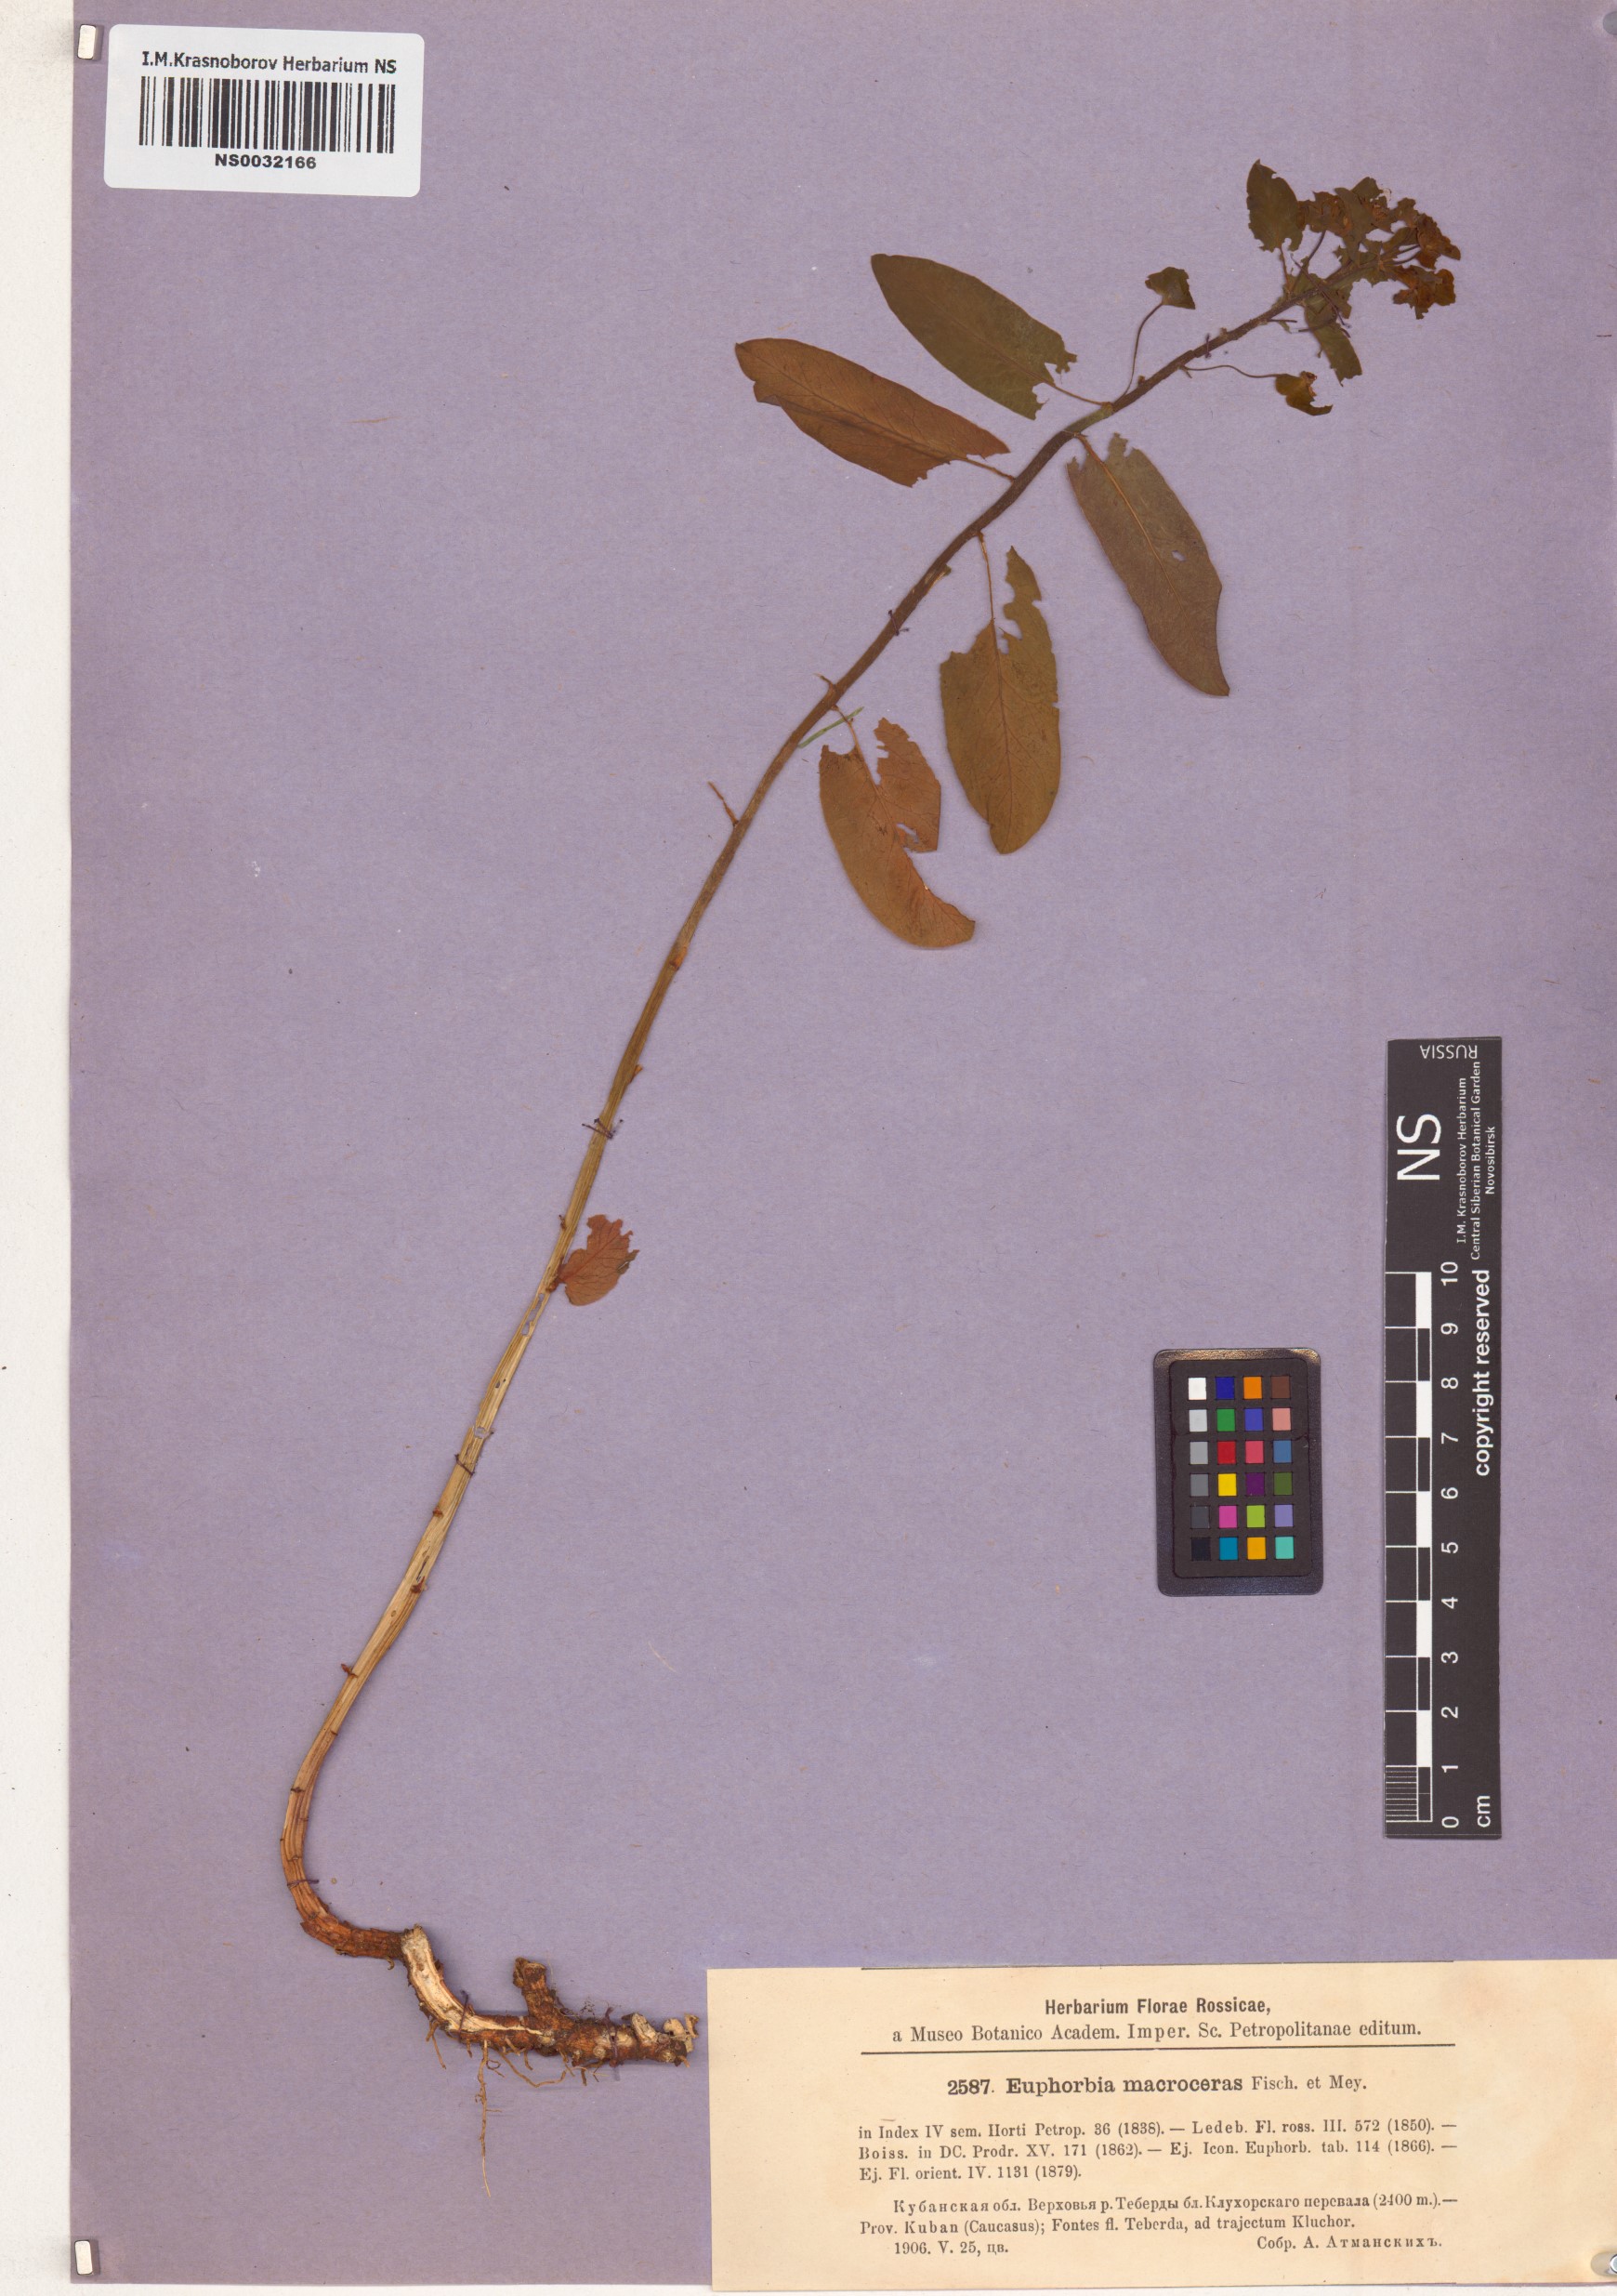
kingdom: Plantae
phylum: Tracheophyta
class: Magnoliopsida
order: Malpighiales
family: Euphorbiaceae
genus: Euphorbia
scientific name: Euphorbia macroceras
